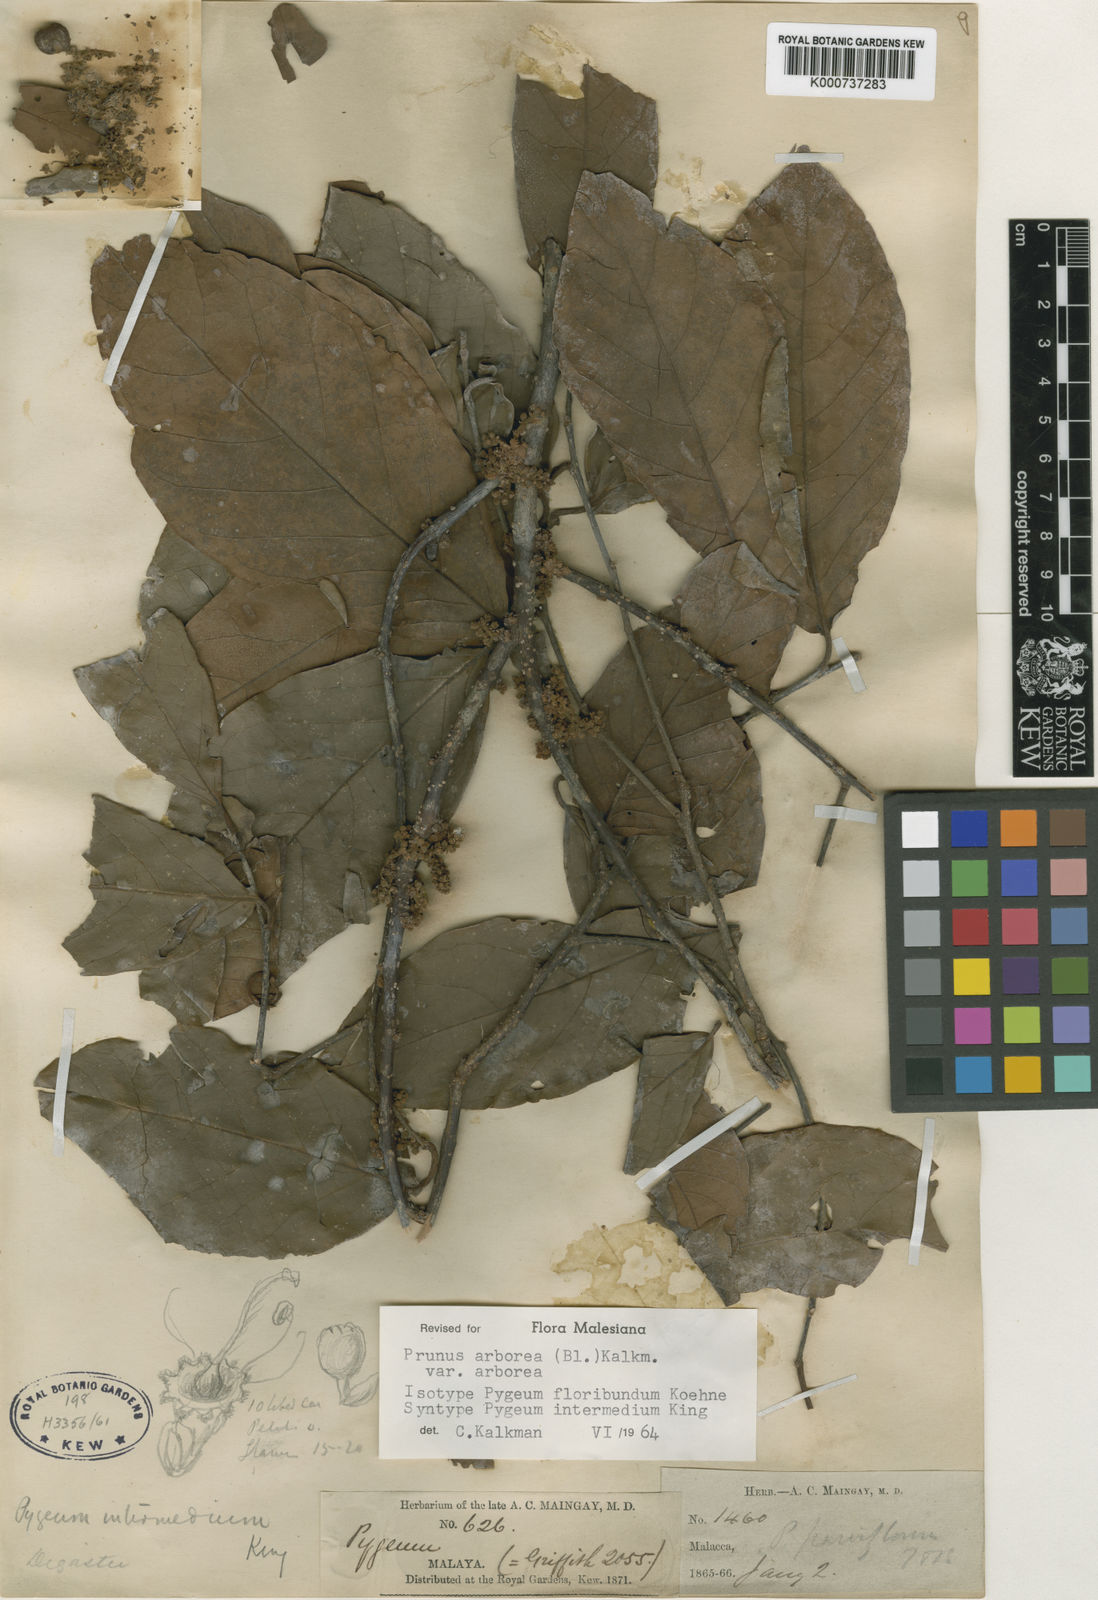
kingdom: Plantae
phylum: Tracheophyta
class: Magnoliopsida
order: Rosales
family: Rosaceae
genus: Prunus
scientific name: Prunus arborea
